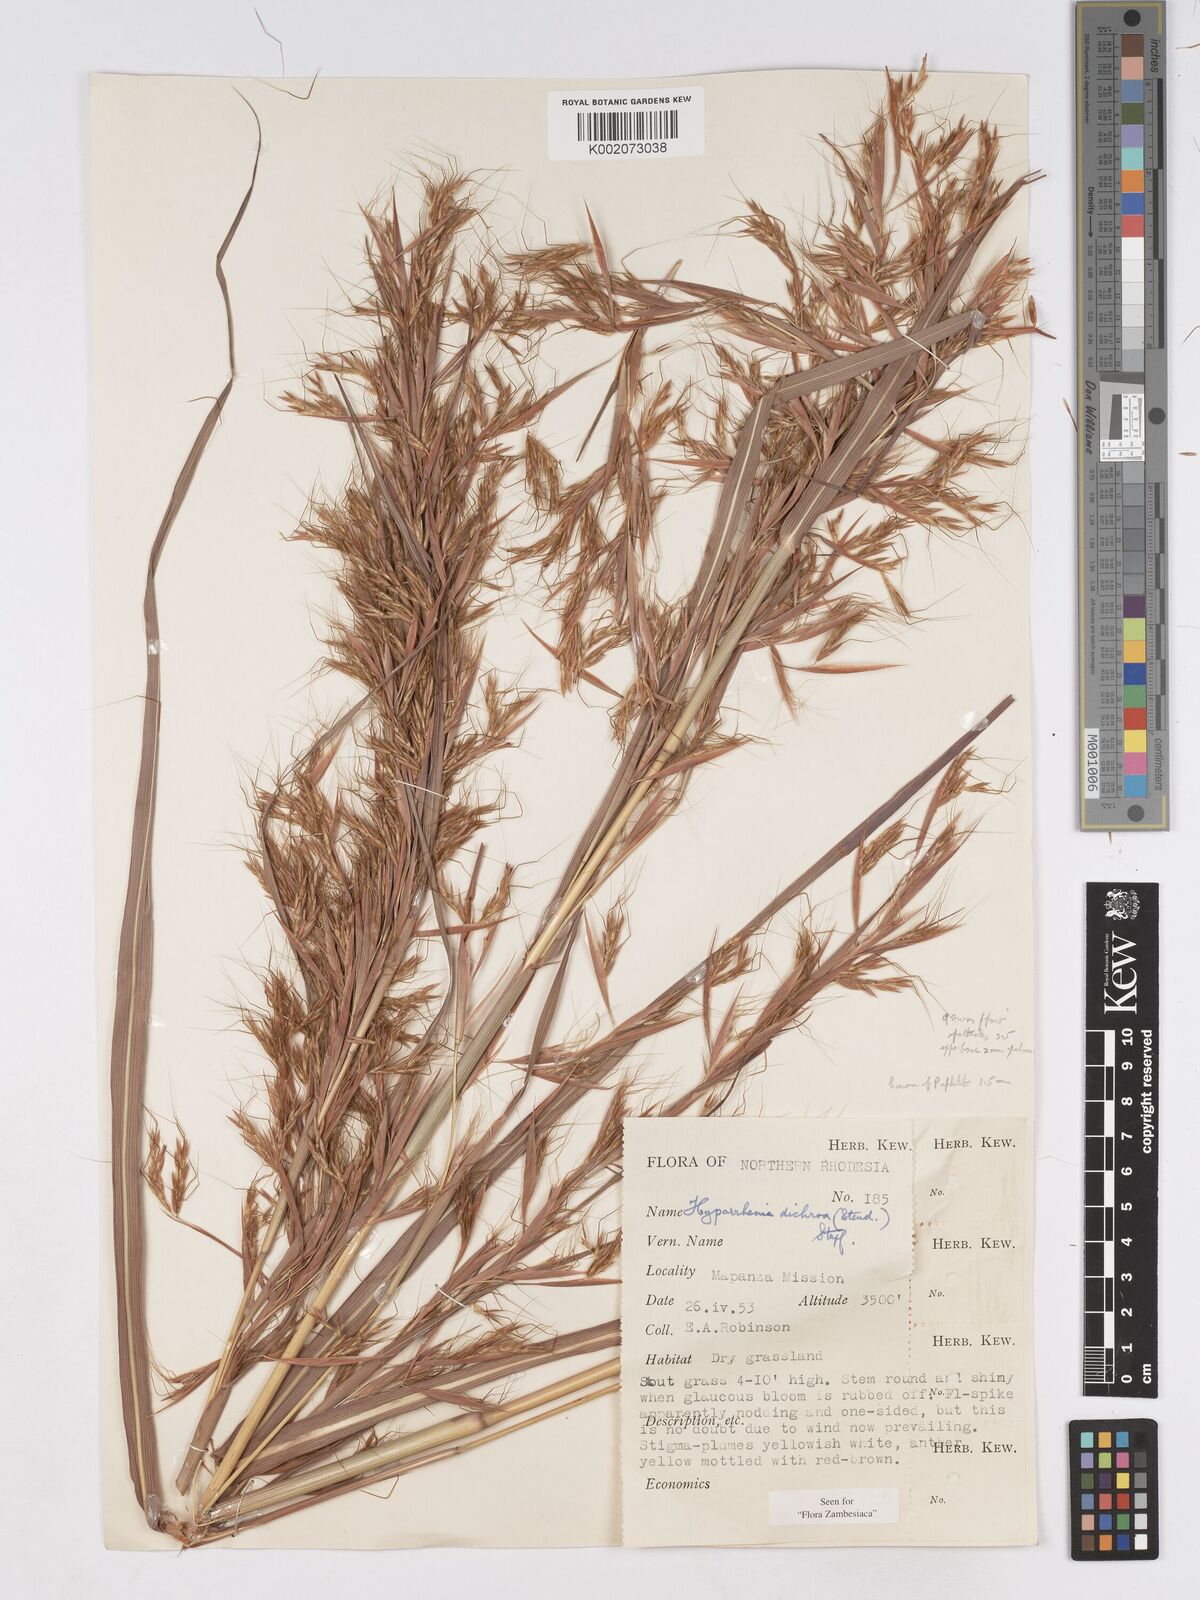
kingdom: Plantae
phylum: Tracheophyta
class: Liliopsida
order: Poales
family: Poaceae
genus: Hyparrhenia
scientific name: Hyparrhenia dichroa
